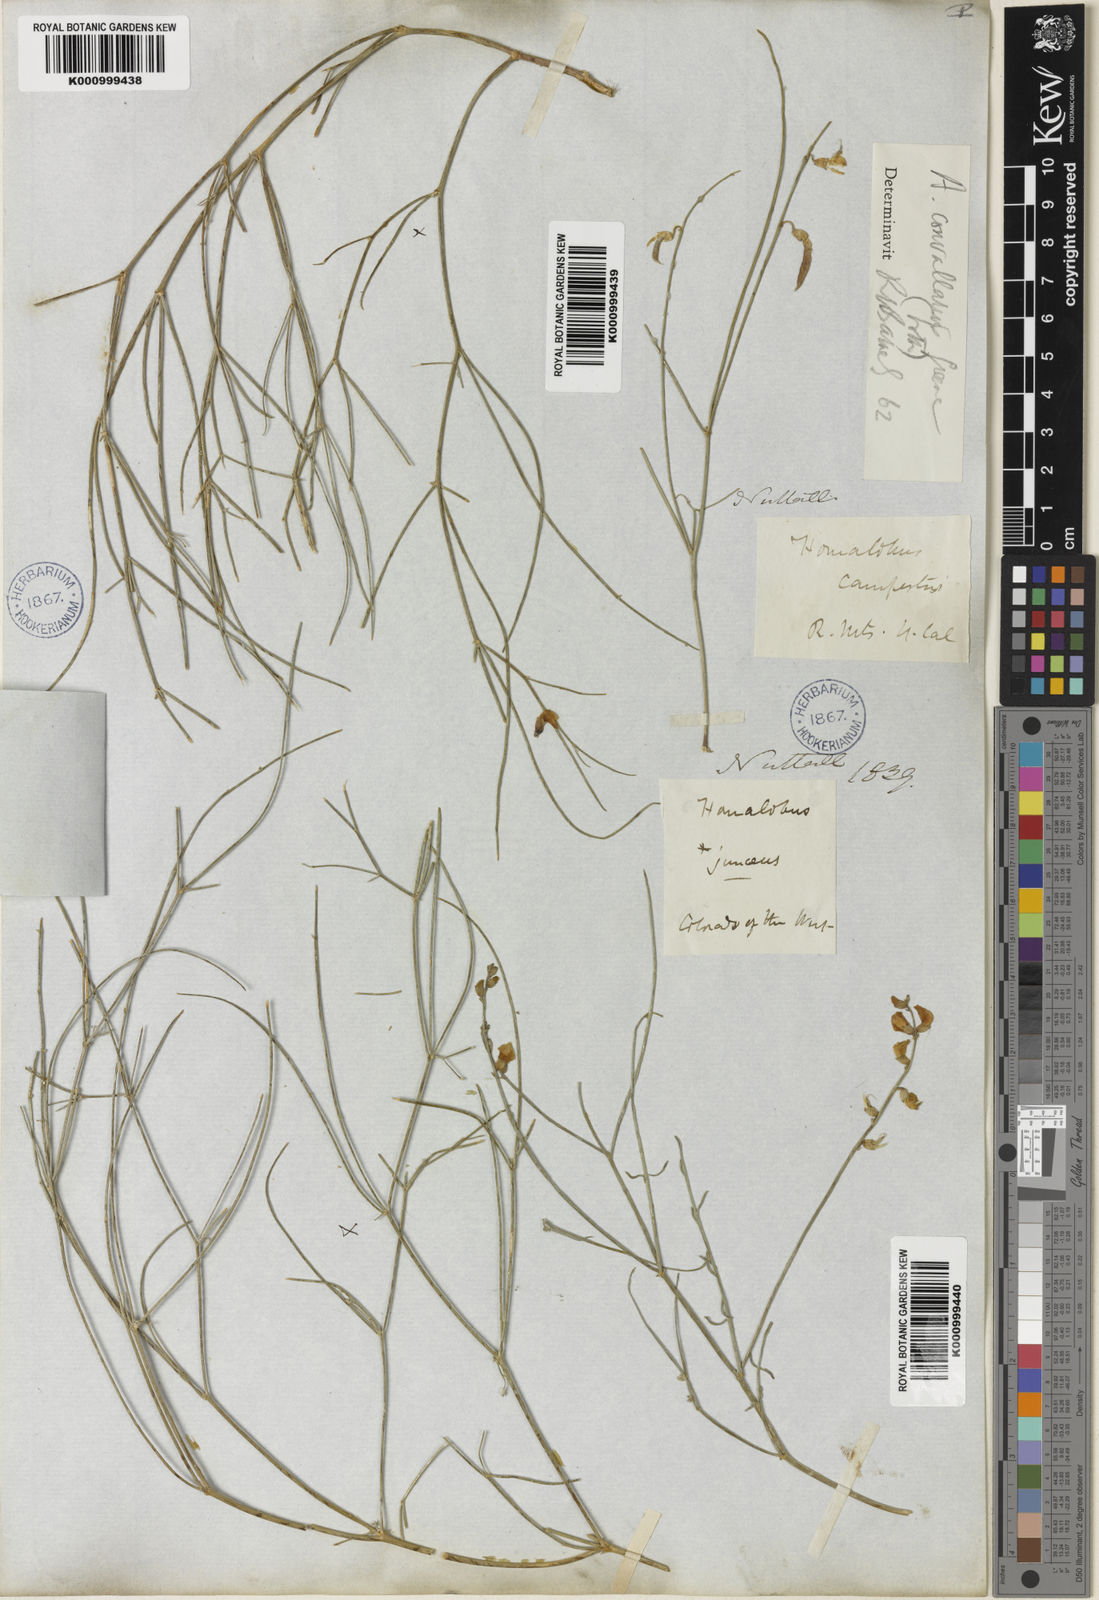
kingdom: Plantae
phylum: Tracheophyta
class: Magnoliopsida
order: Fabales
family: Fabaceae
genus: Astragalus
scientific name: Astragalus convallarius
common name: Lesser rushy milk-vetch
